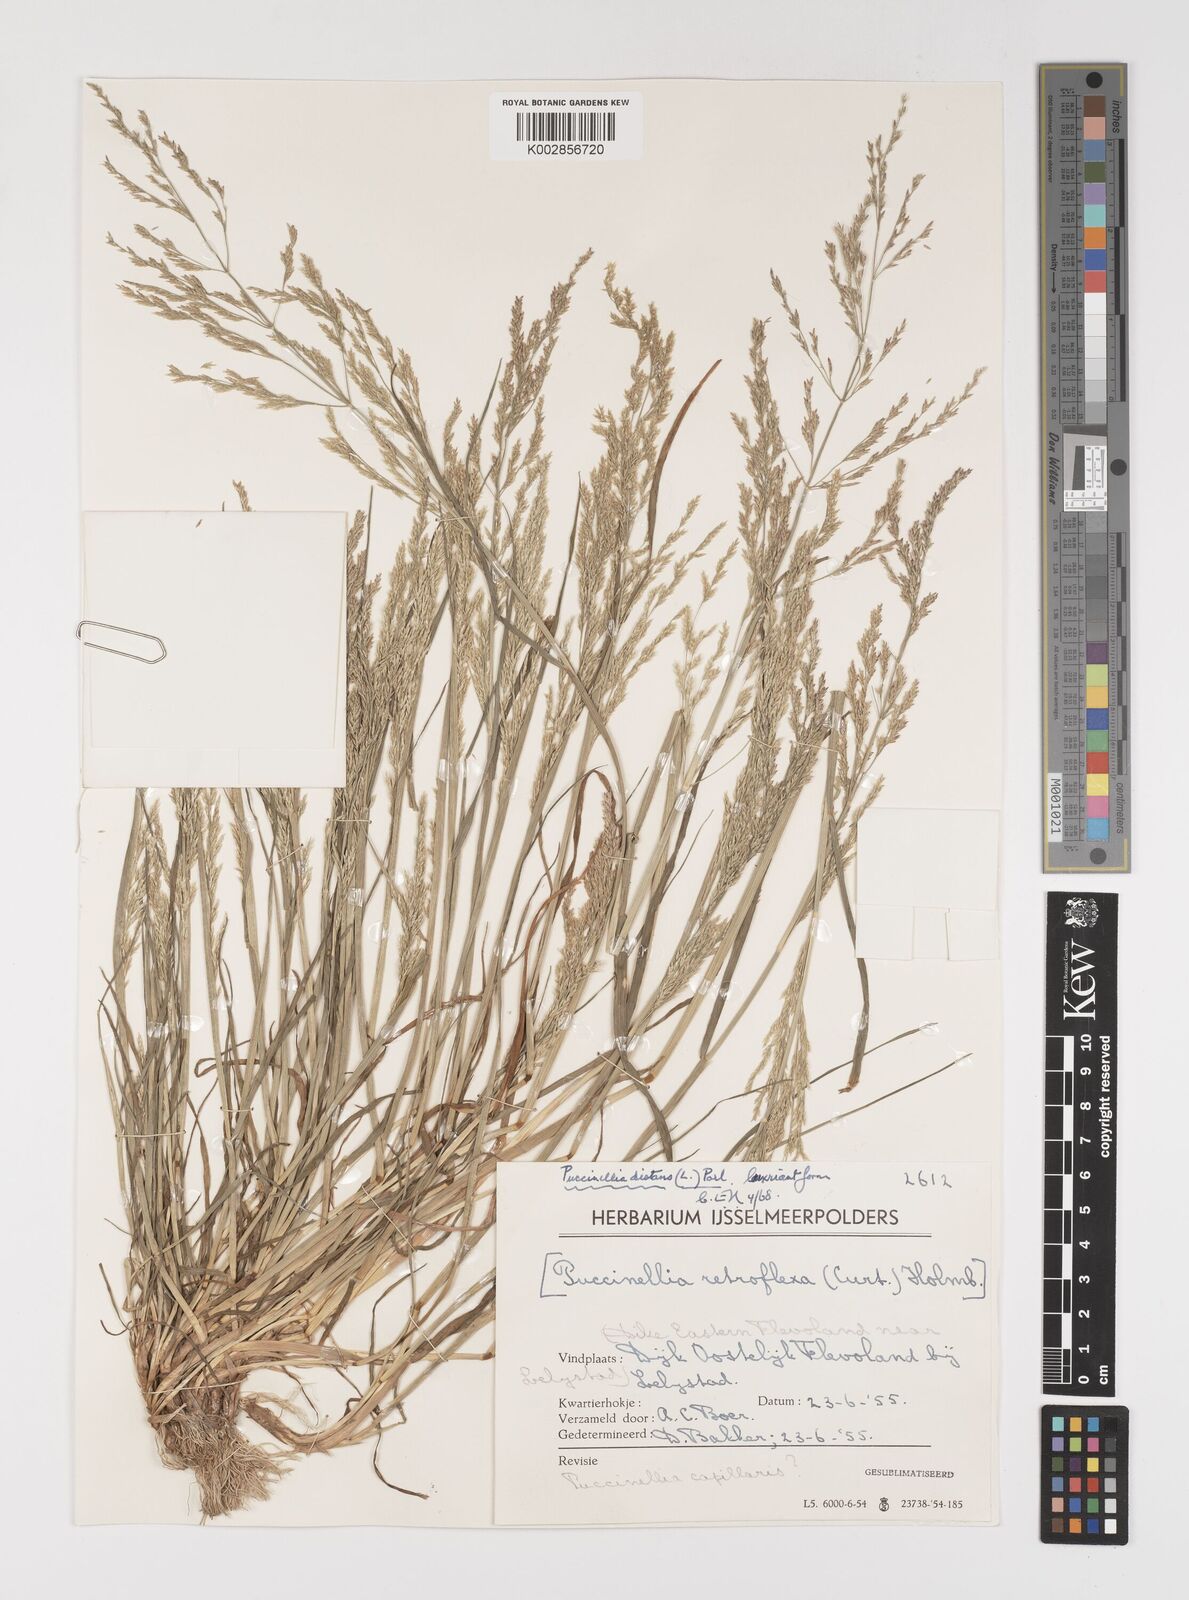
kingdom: Plantae
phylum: Tracheophyta
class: Liliopsida
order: Poales
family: Poaceae
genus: Puccinellia
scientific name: Puccinellia
